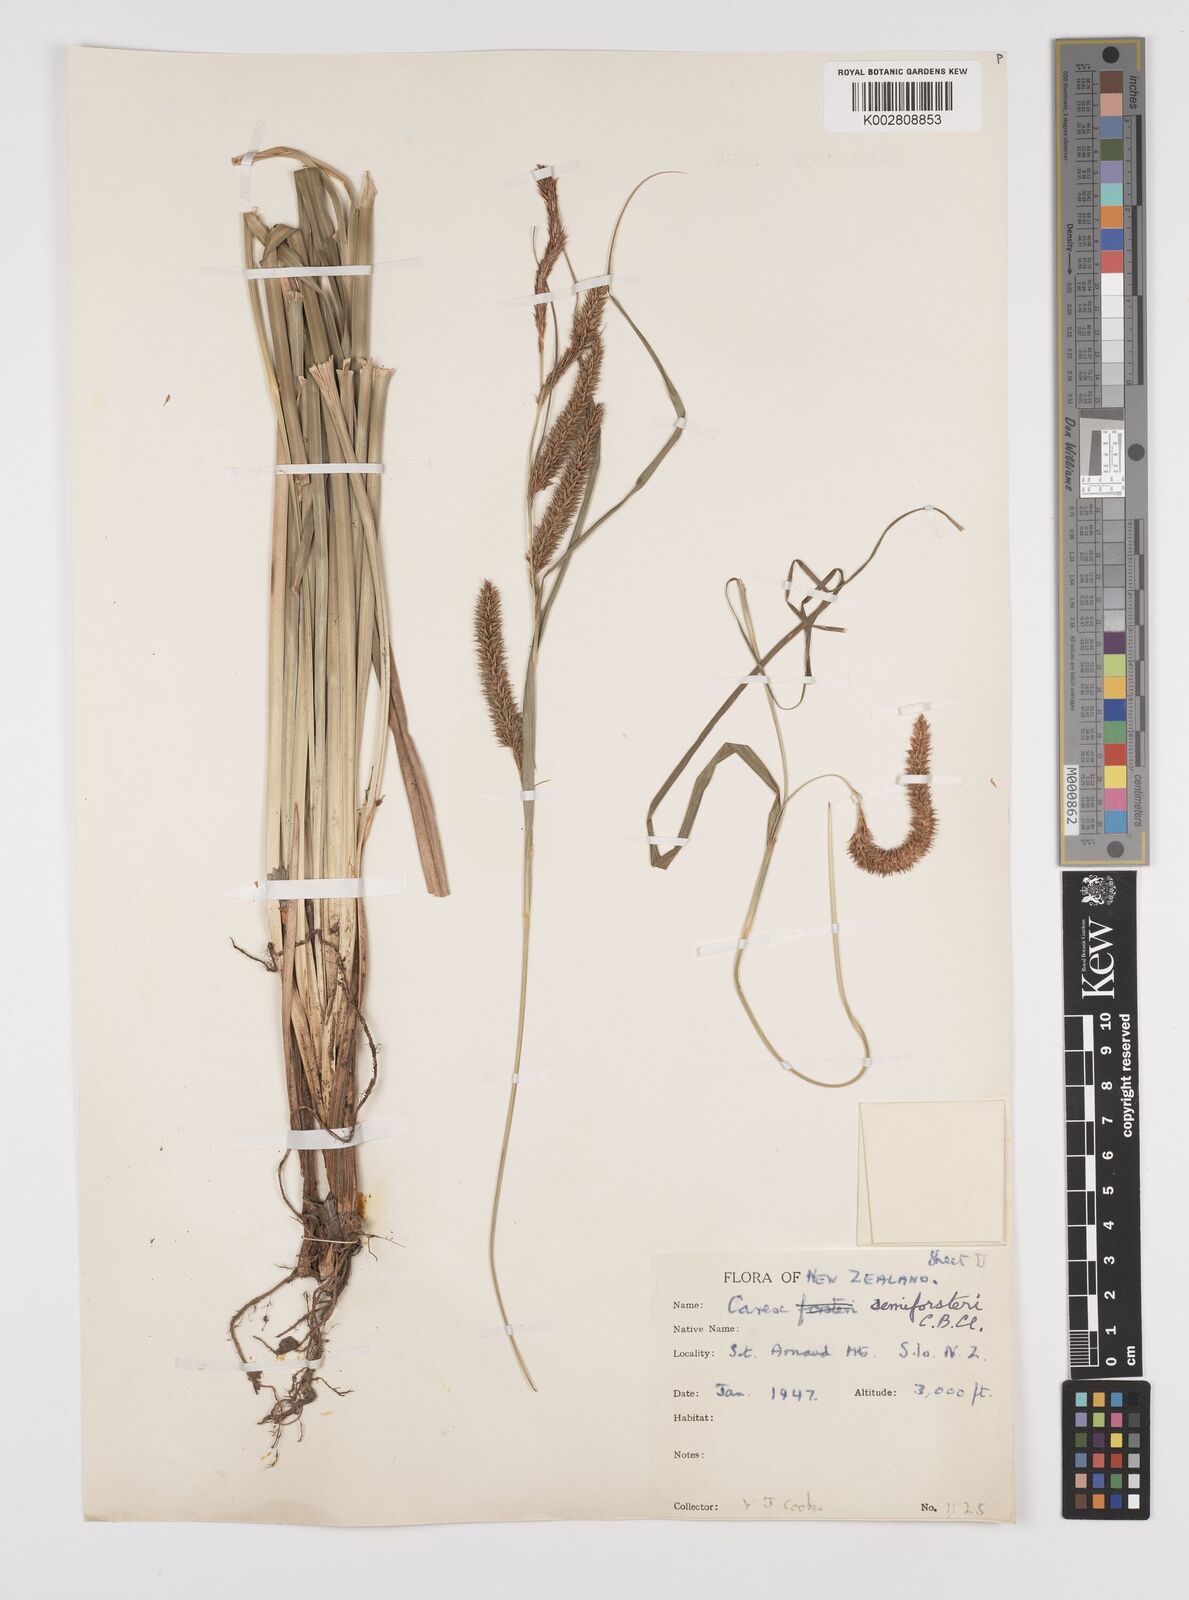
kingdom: Plantae
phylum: Tracheophyta
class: Liliopsida
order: Poales
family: Cyperaceae
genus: Carex
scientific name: Carex forsteri
